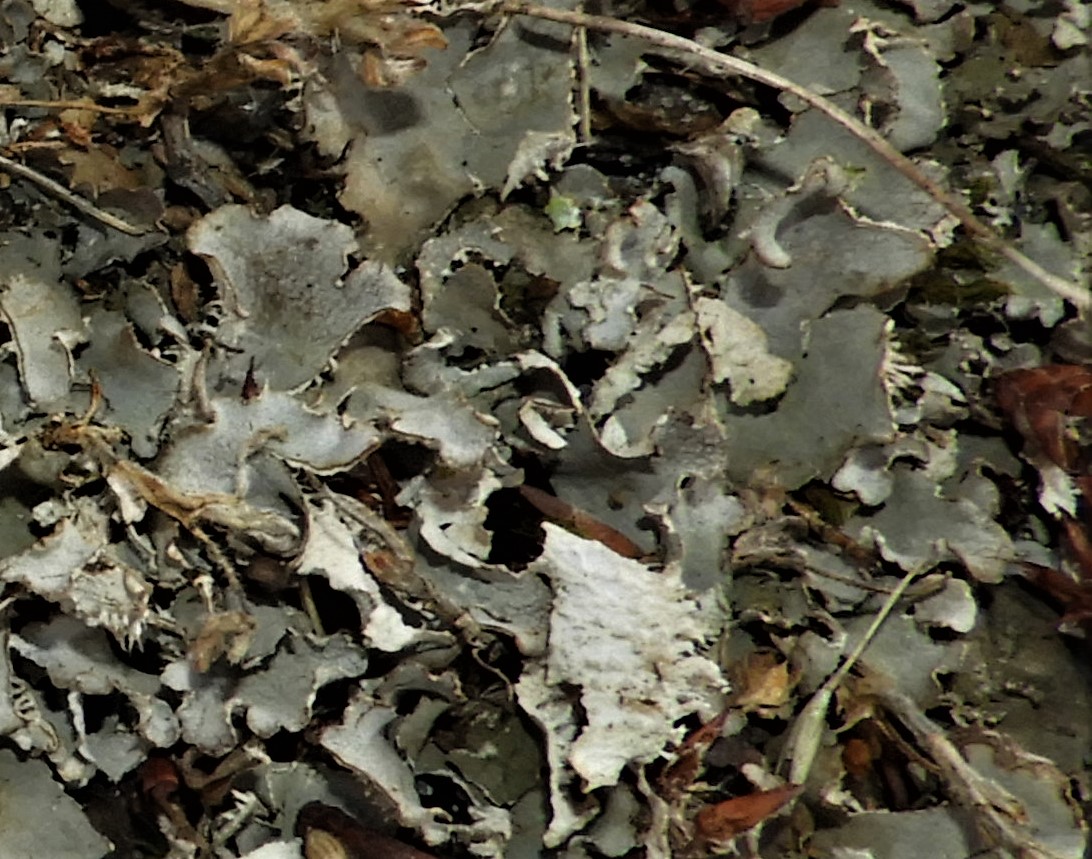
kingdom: Fungi
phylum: Ascomycota
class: Lecanoromycetes
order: Peltigerales
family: Peltigeraceae
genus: Peltigera
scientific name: Peltigera canina
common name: hunde-skjoldlav
